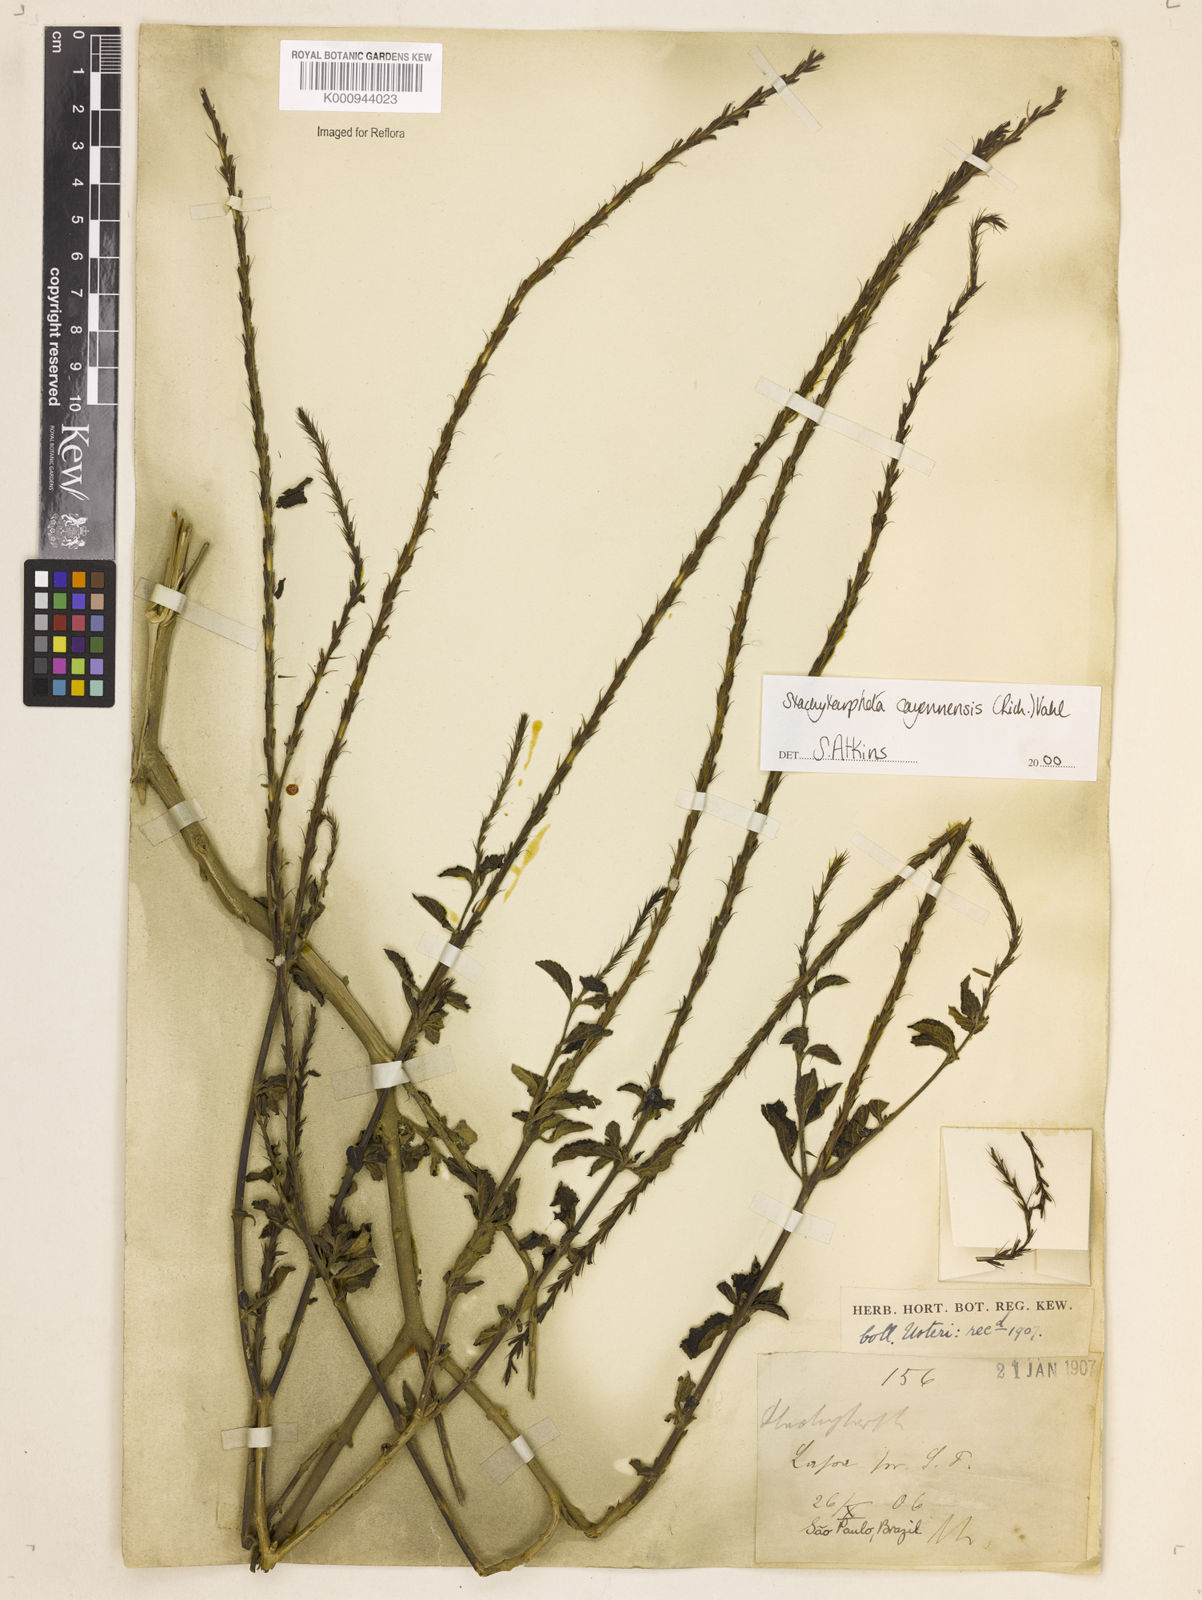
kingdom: Plantae
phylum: Tracheophyta
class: Magnoliopsida
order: Lamiales
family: Verbenaceae
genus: Aloysia
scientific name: Aloysia
